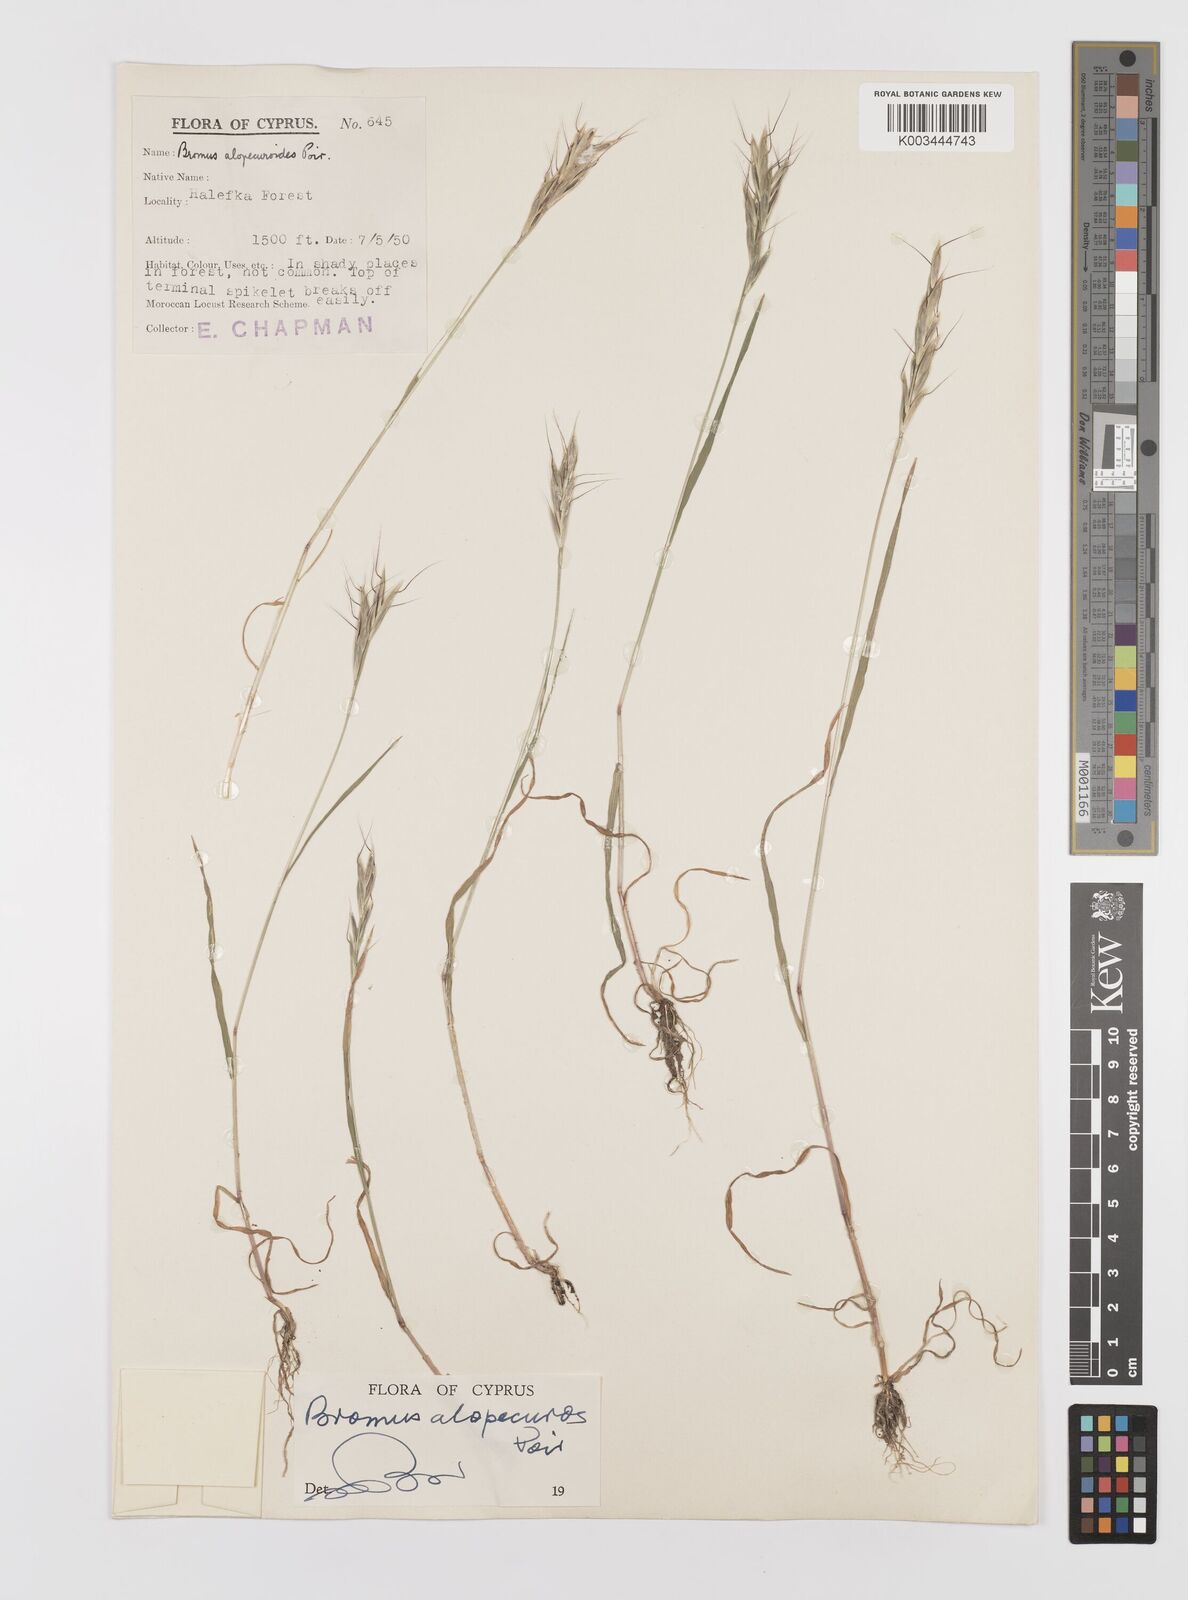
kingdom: Plantae
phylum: Tracheophyta
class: Liliopsida
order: Poales
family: Poaceae
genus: Bromus
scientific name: Bromus alopecuros
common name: Weedy brome
